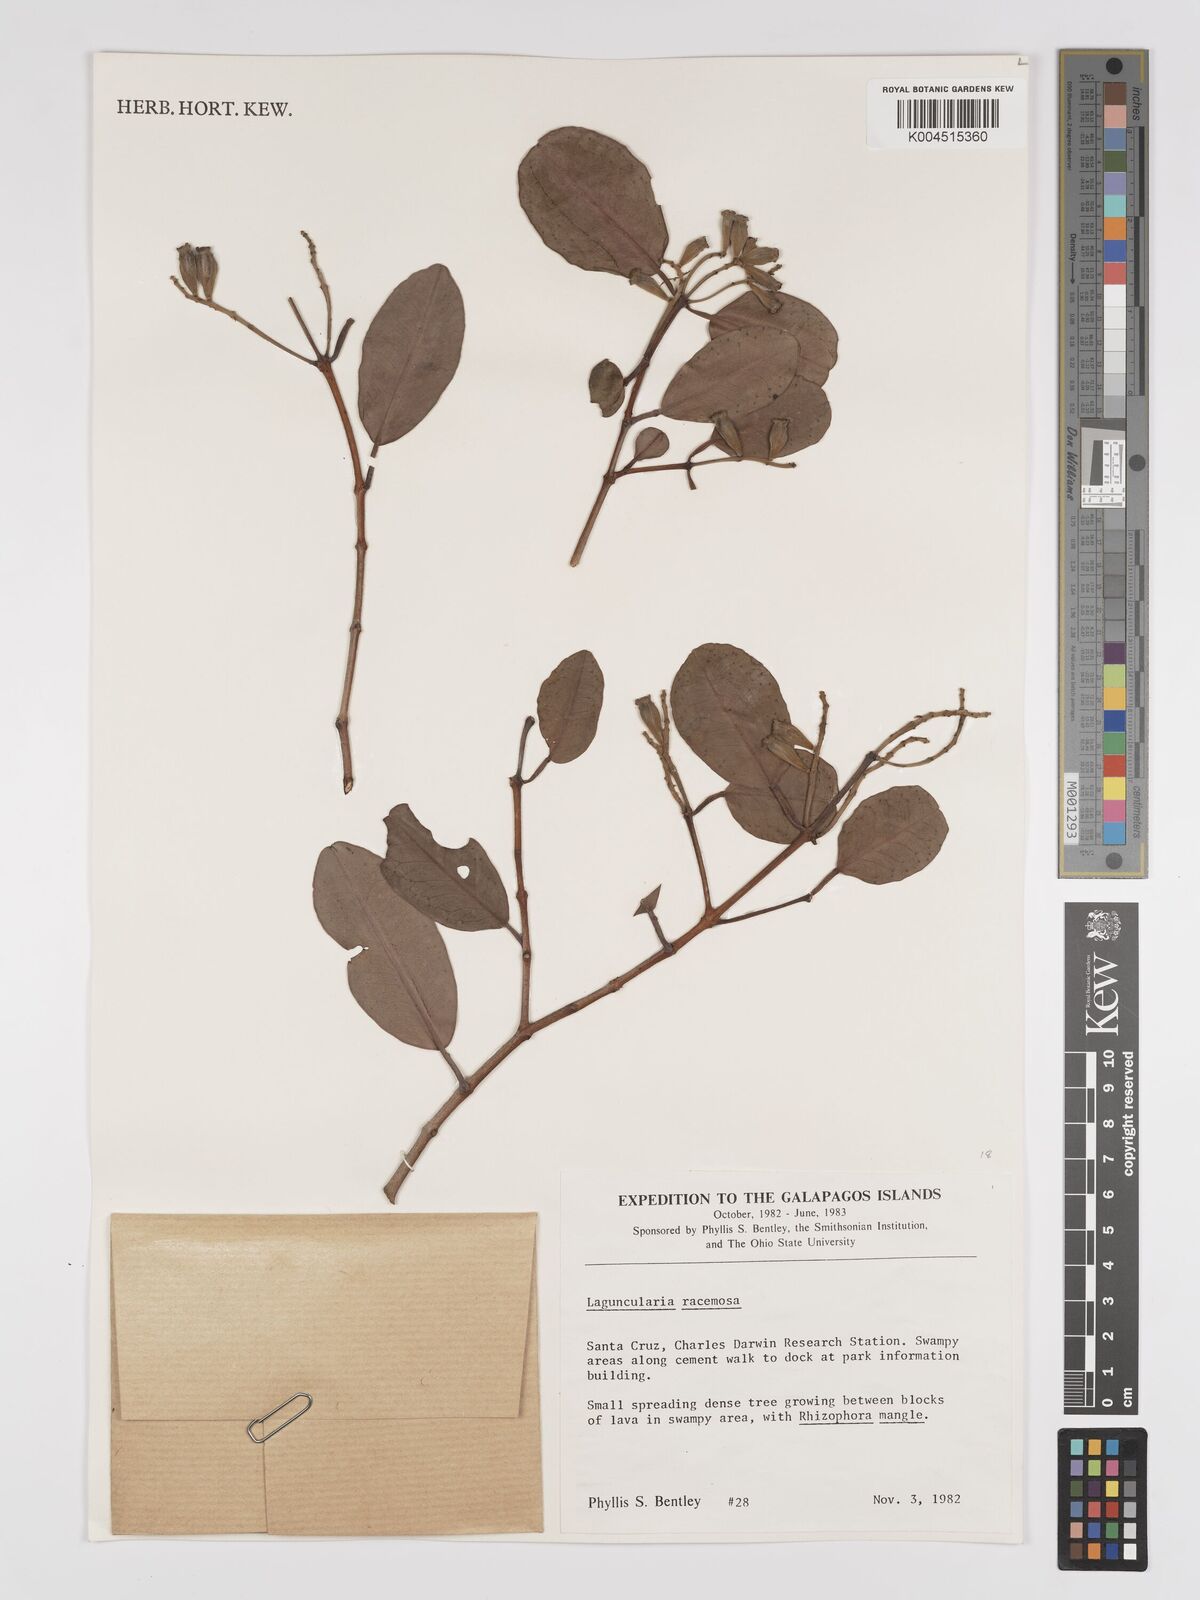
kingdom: Plantae
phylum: Tracheophyta
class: Magnoliopsida
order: Myrtales
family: Combretaceae
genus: Laguncularia
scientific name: Laguncularia racemosa
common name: White mangrove
